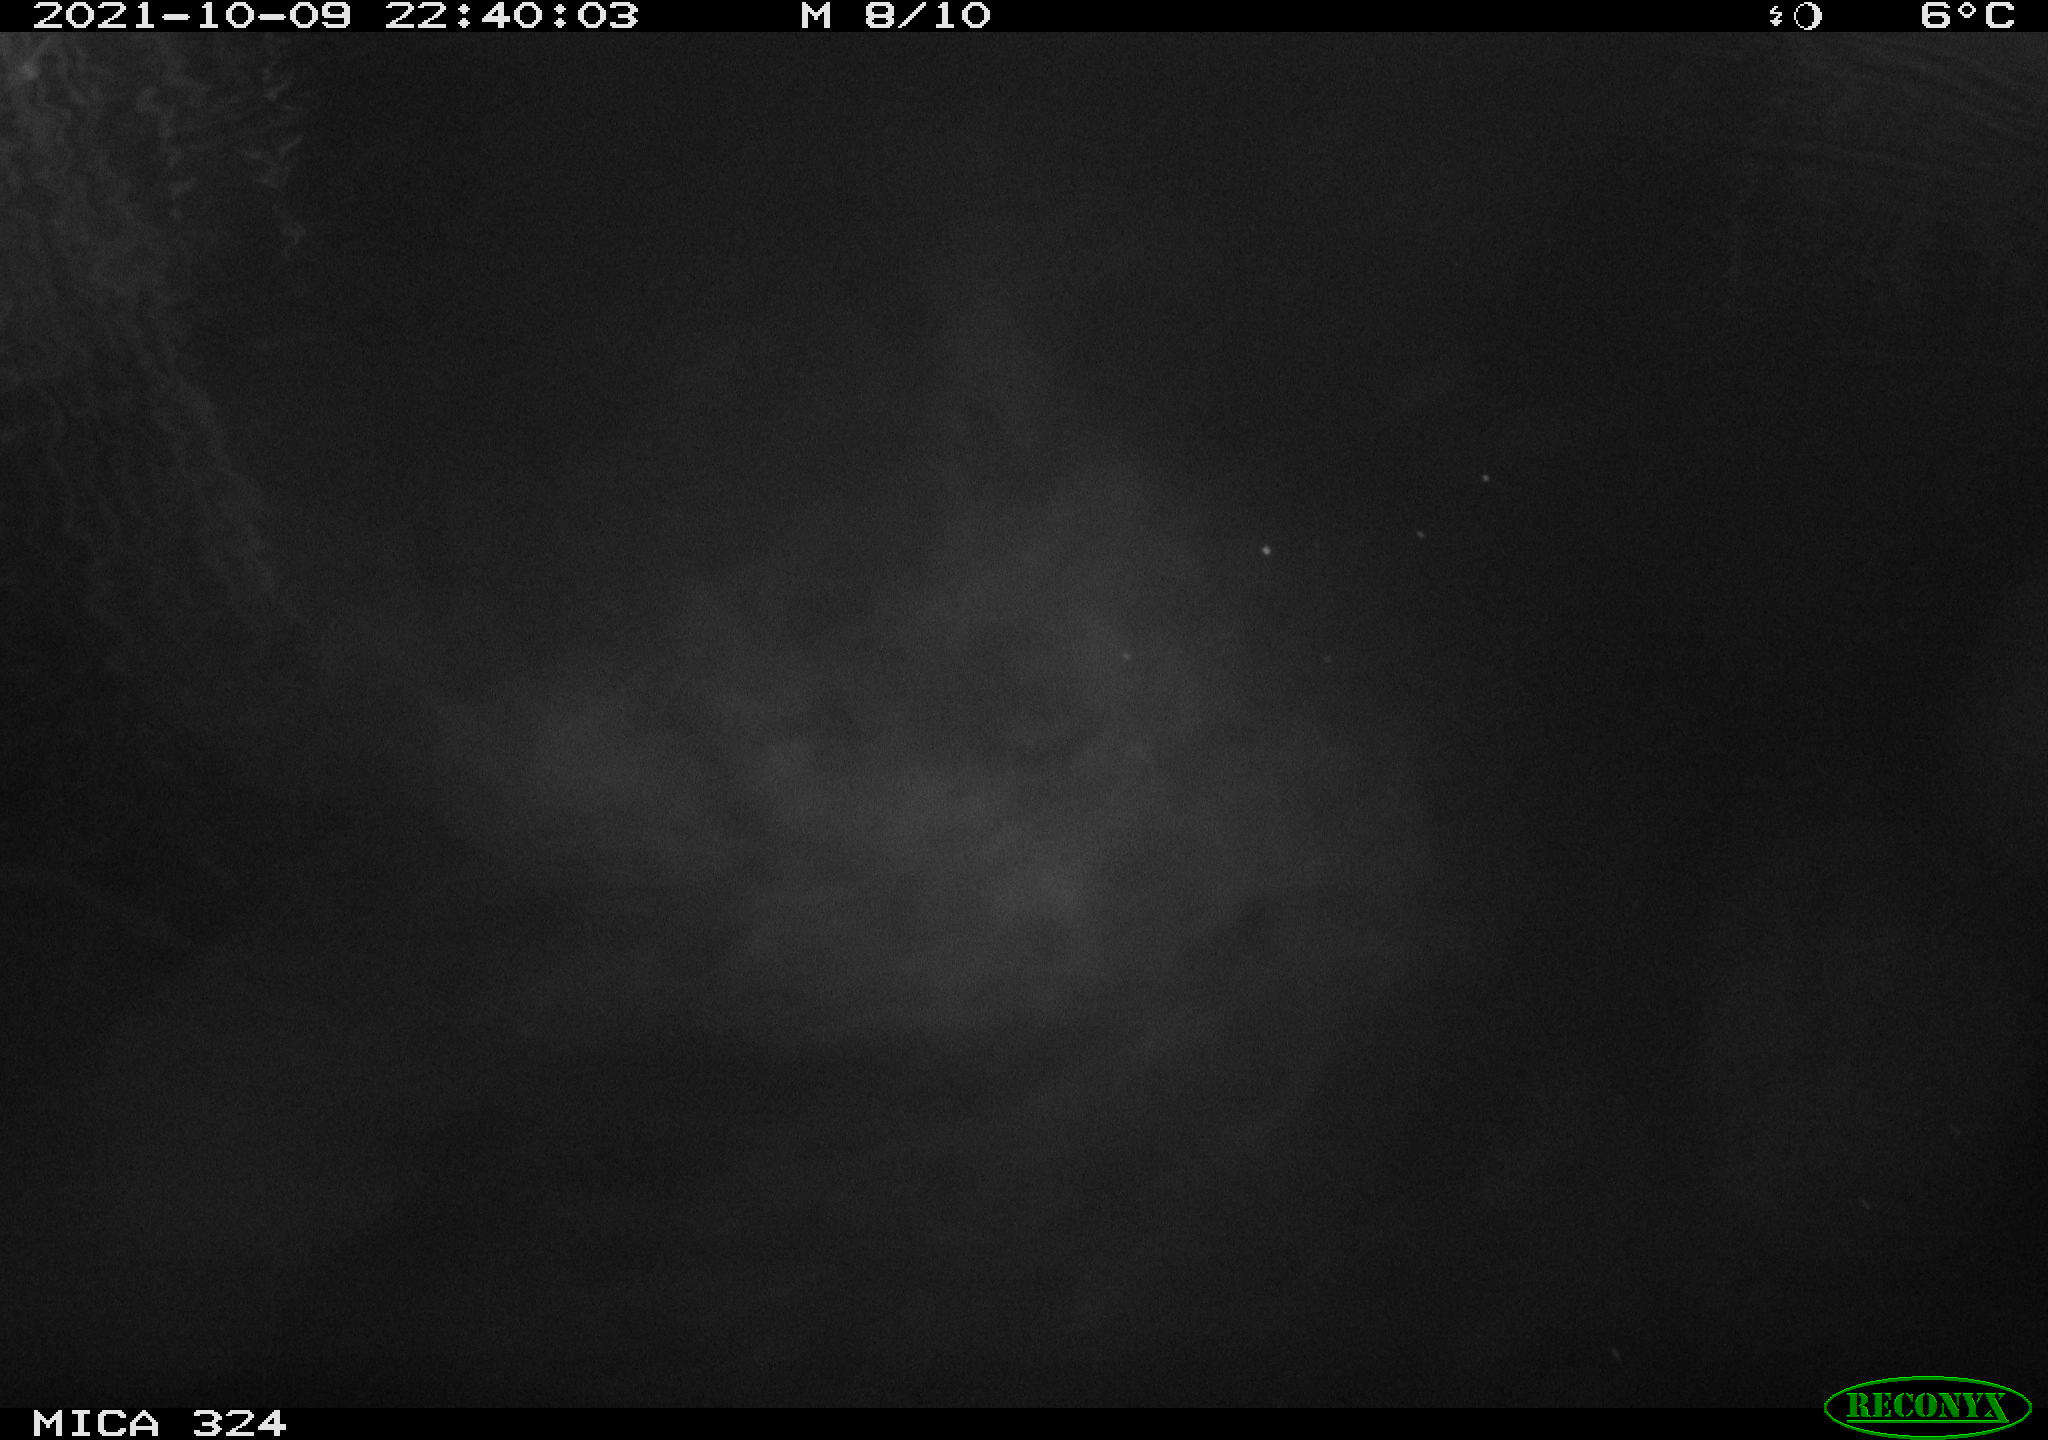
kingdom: Animalia
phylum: Chordata
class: Mammalia
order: Rodentia
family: Cricetidae
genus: Ondatra
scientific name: Ondatra zibethicus
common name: Muskrat
